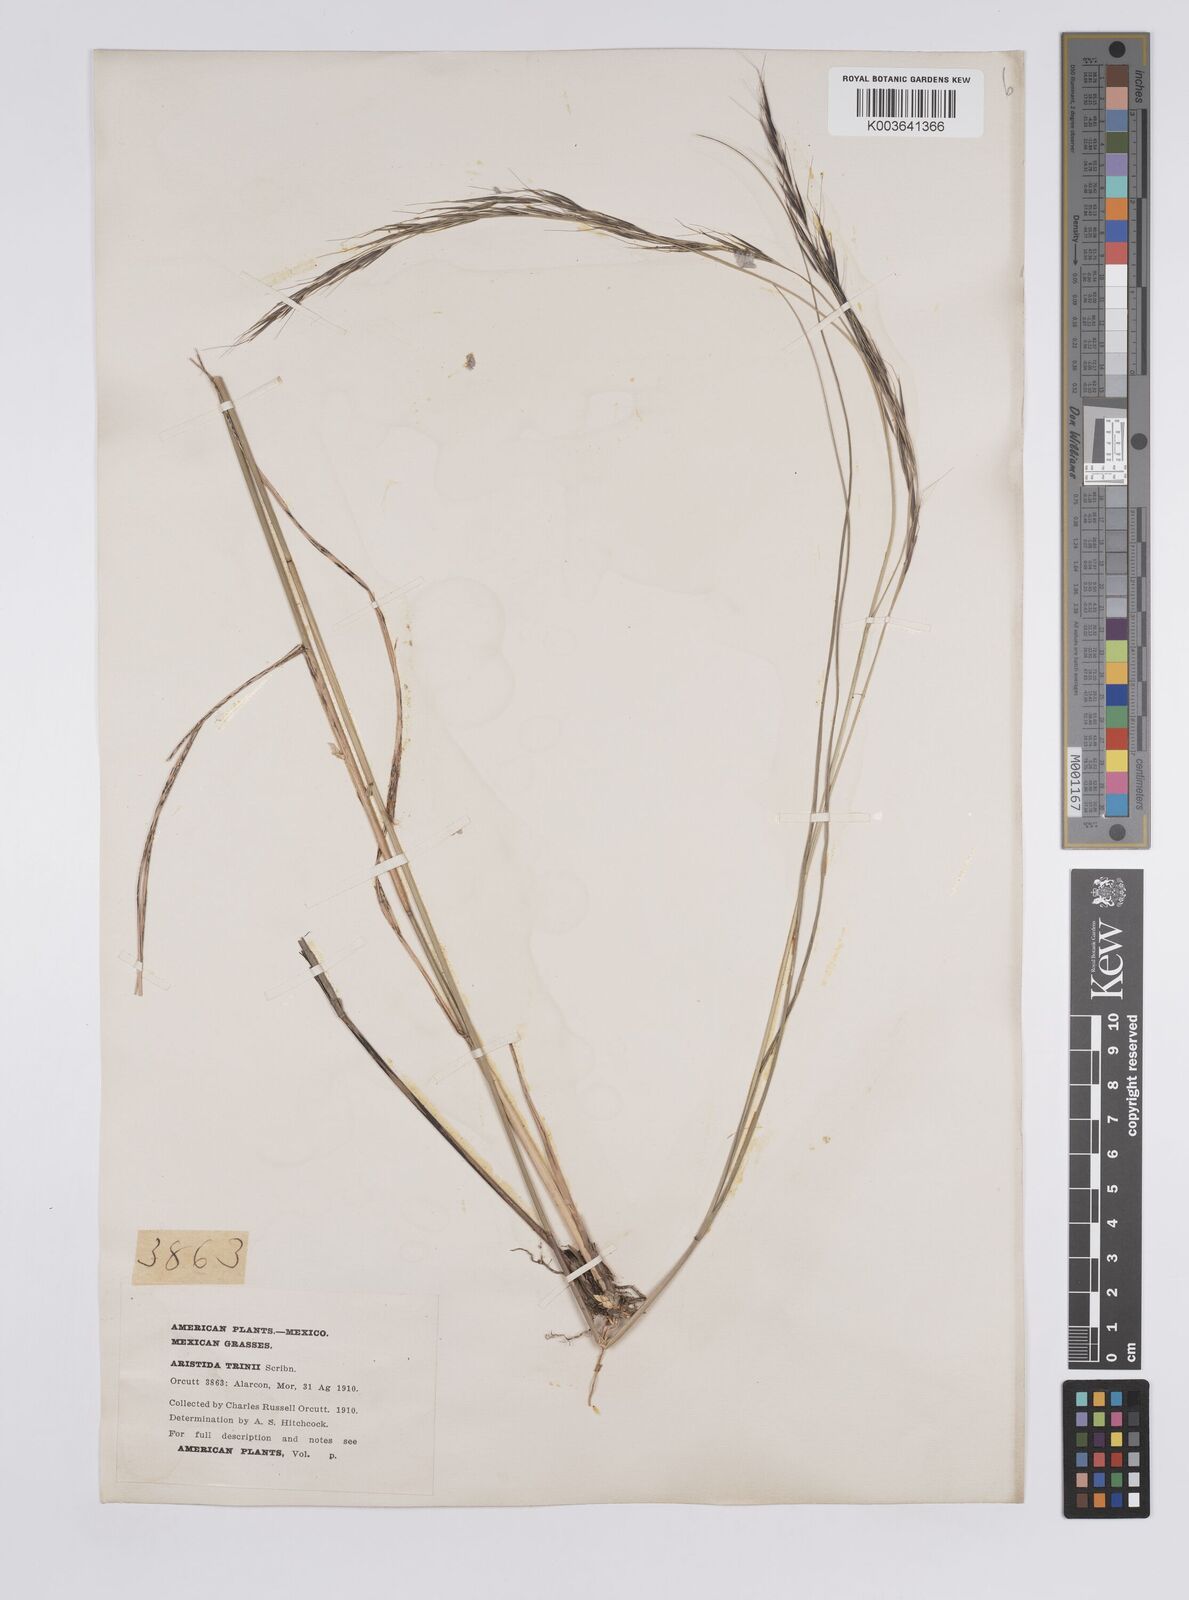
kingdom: Plantae
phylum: Tracheophyta
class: Liliopsida
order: Poales
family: Poaceae
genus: Aristida
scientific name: Aristida ekmaniana
